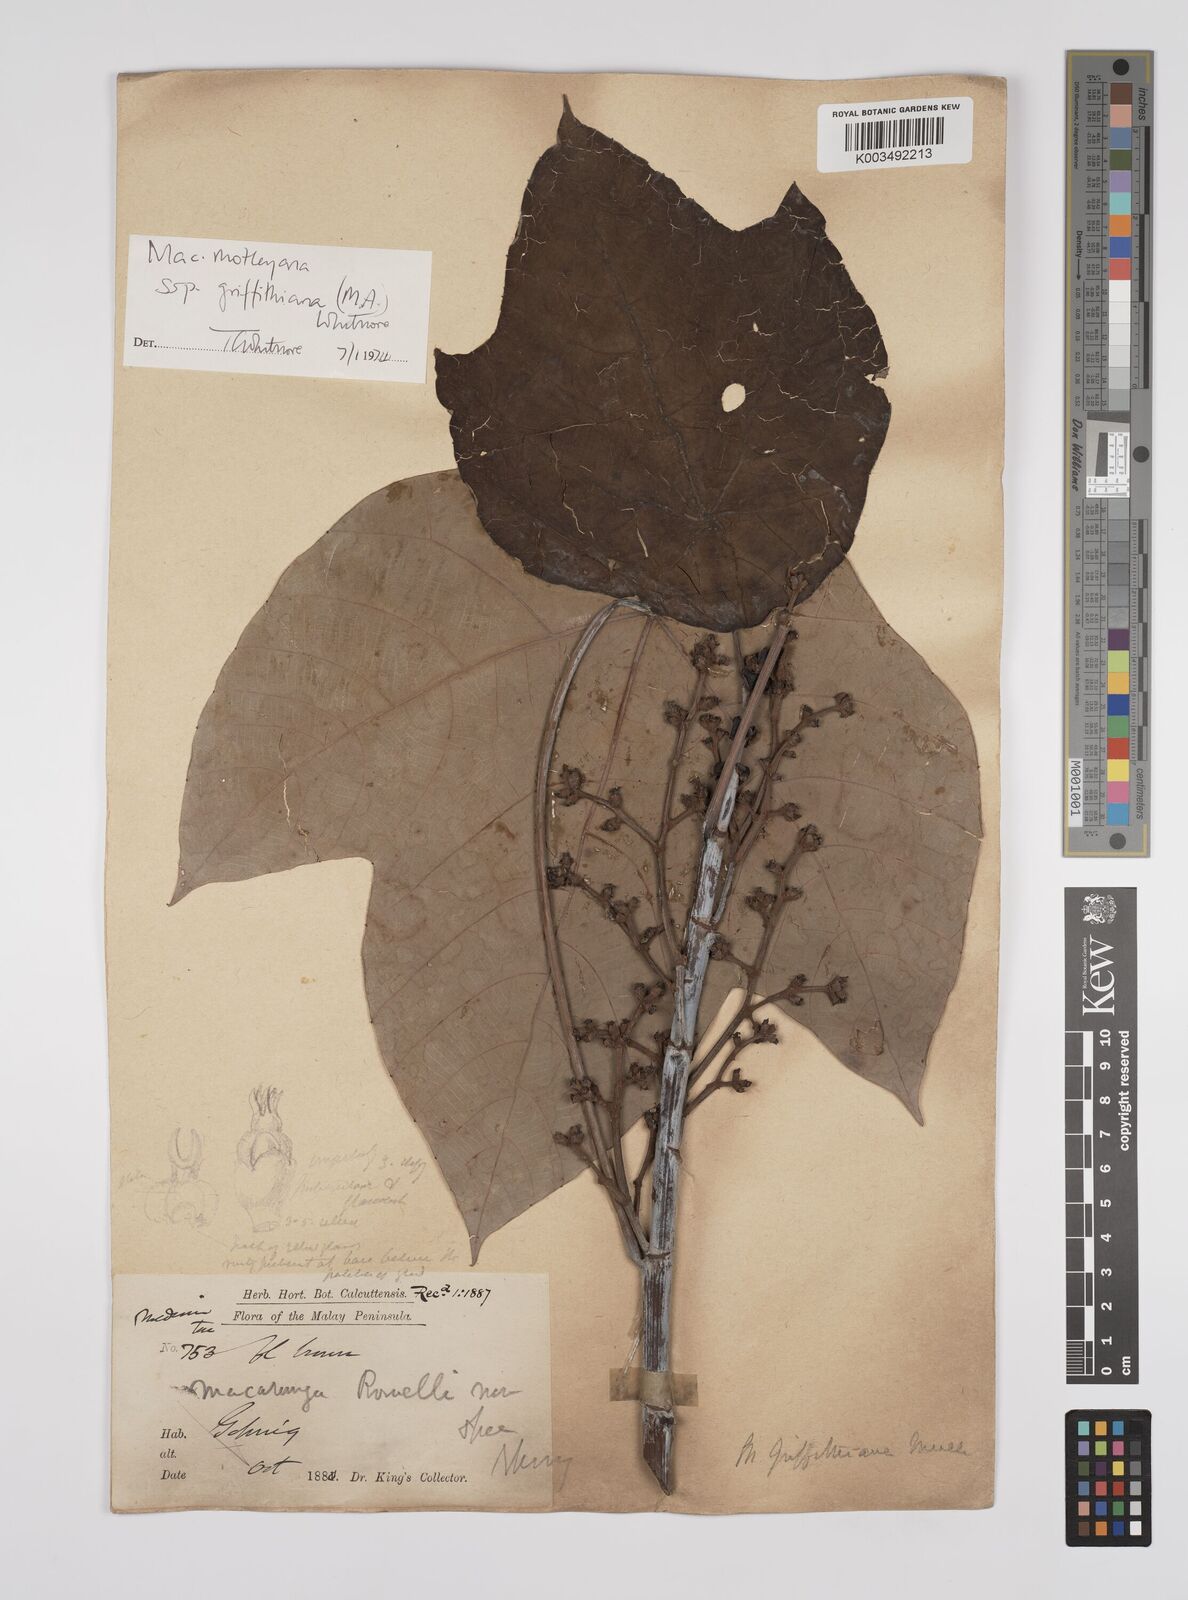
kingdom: Plantae
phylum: Tracheophyta
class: Magnoliopsida
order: Malpighiales
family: Euphorbiaceae
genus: Macaranga
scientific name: Macaranga griffithiana
